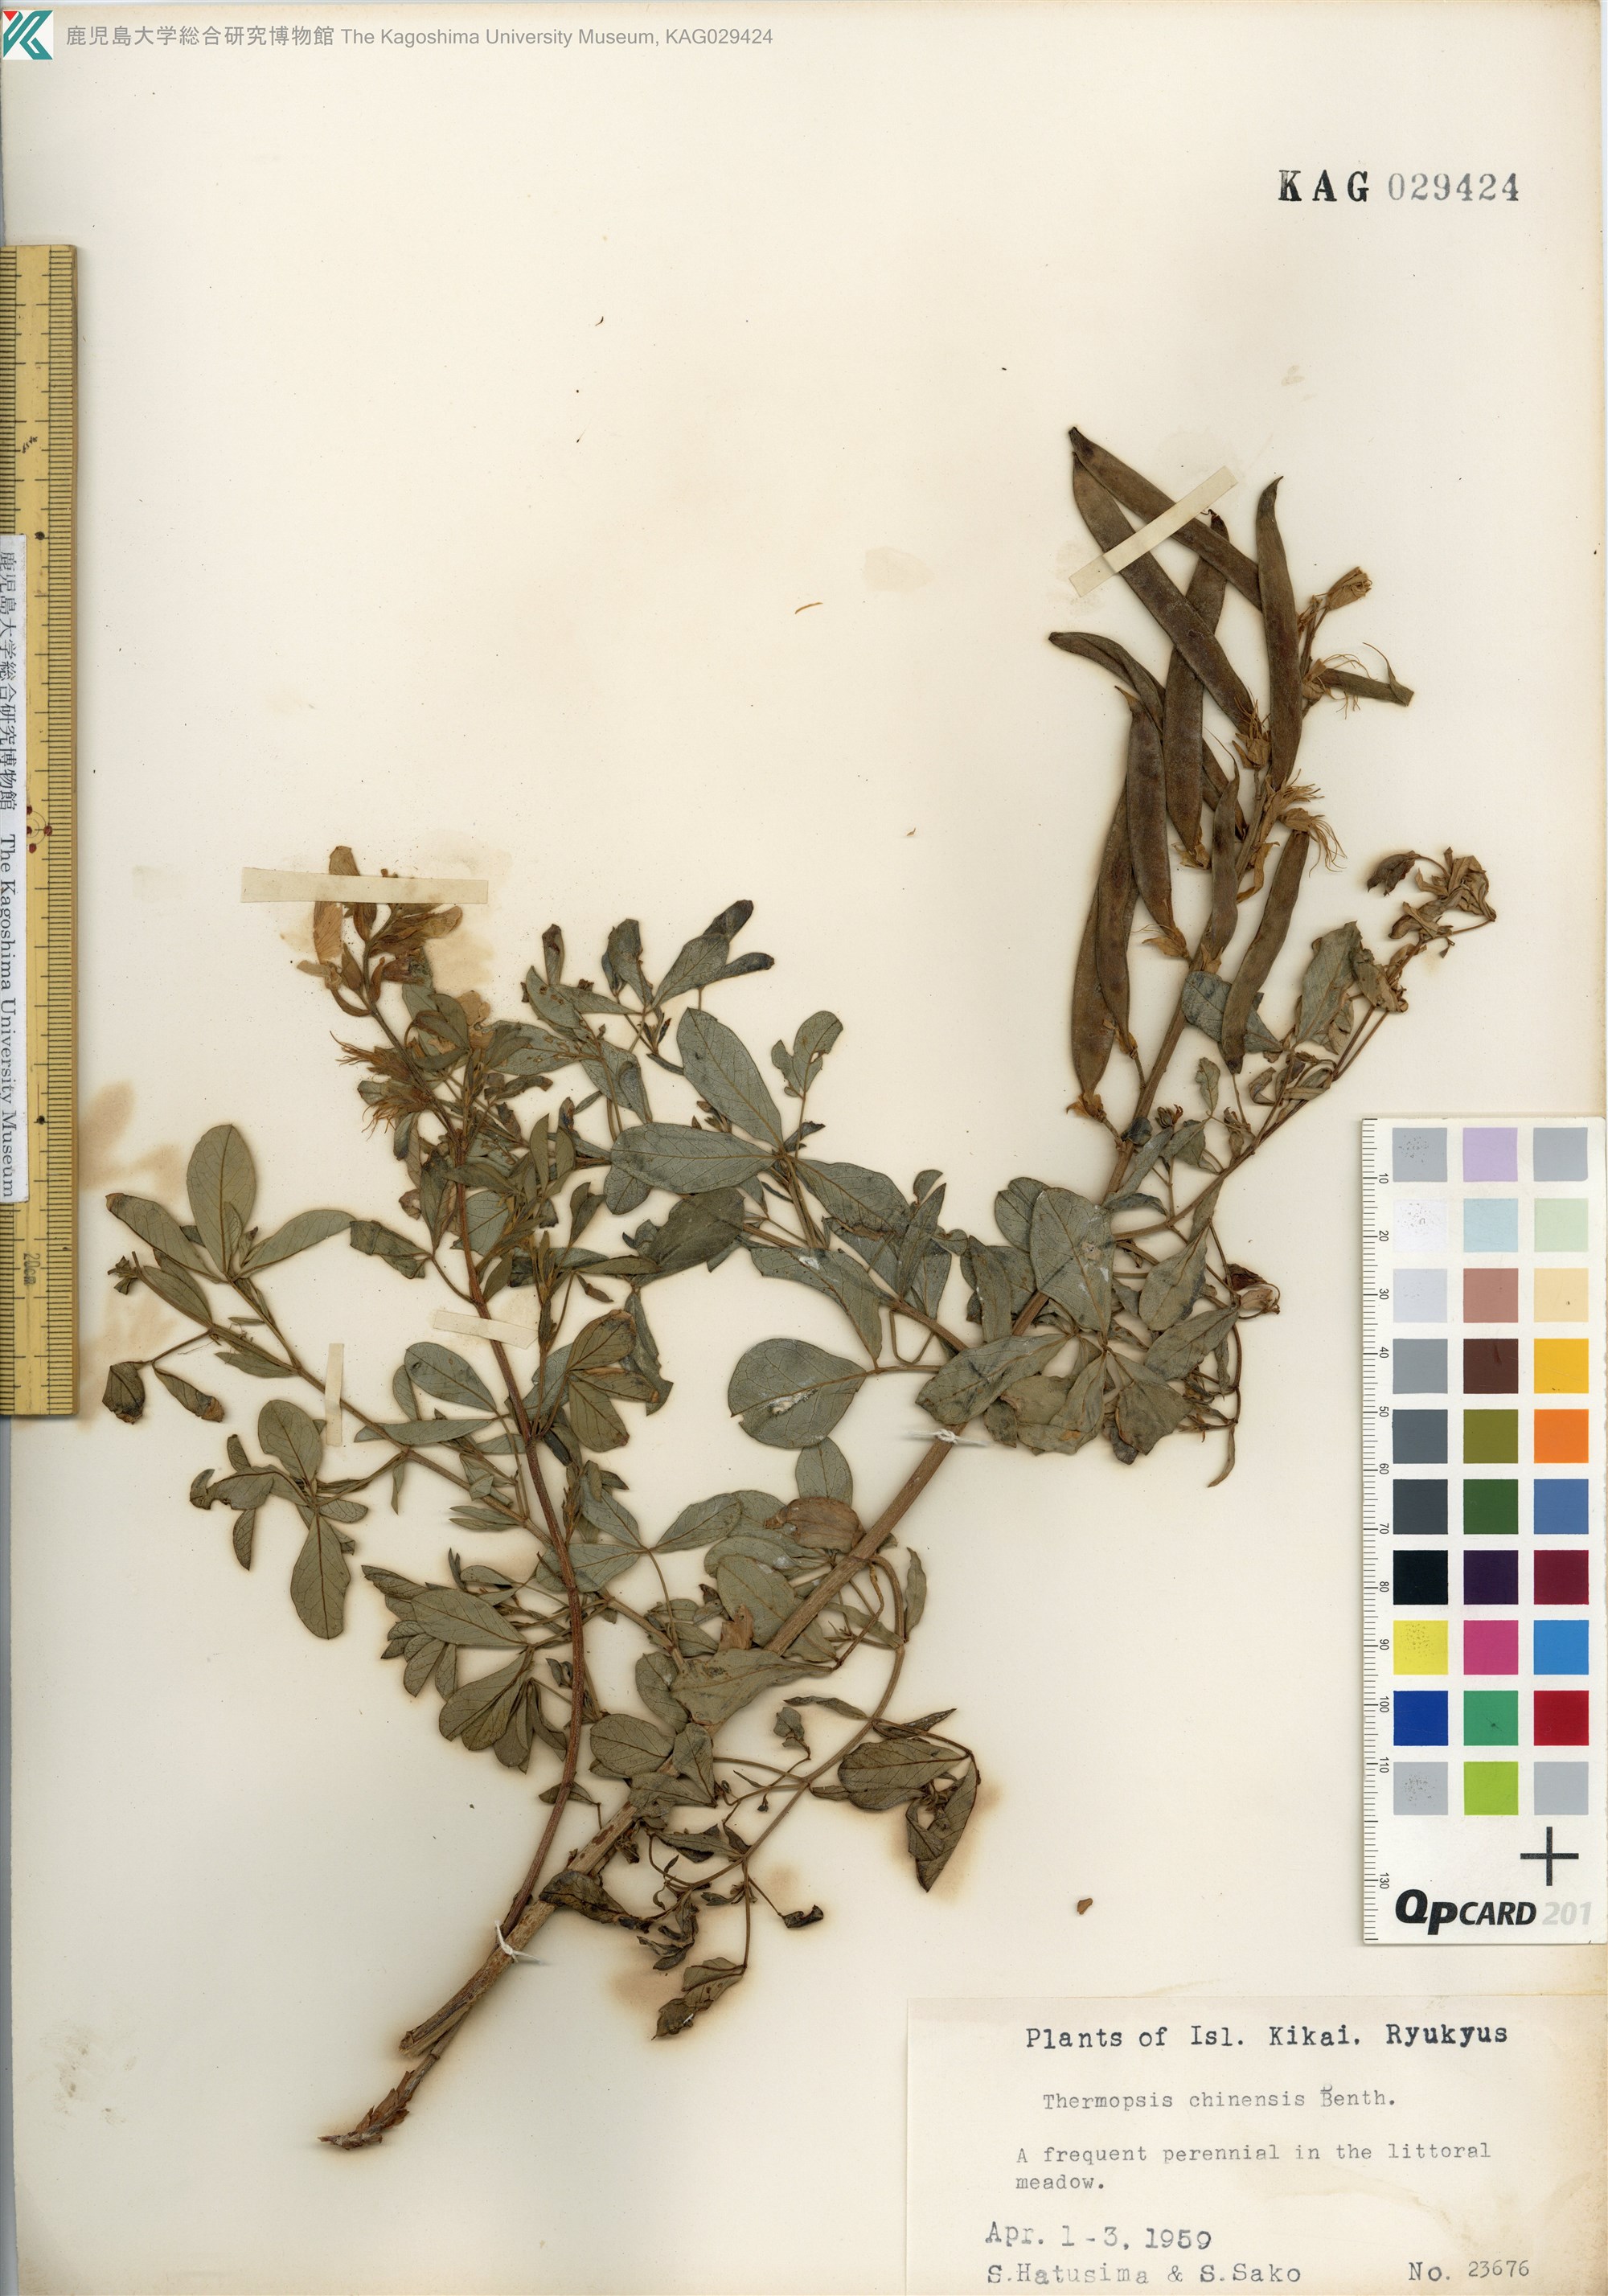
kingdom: Plantae
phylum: Tracheophyta
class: Magnoliopsida
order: Fabales
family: Fabaceae
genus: Thermopsis
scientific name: Thermopsis chinensis
